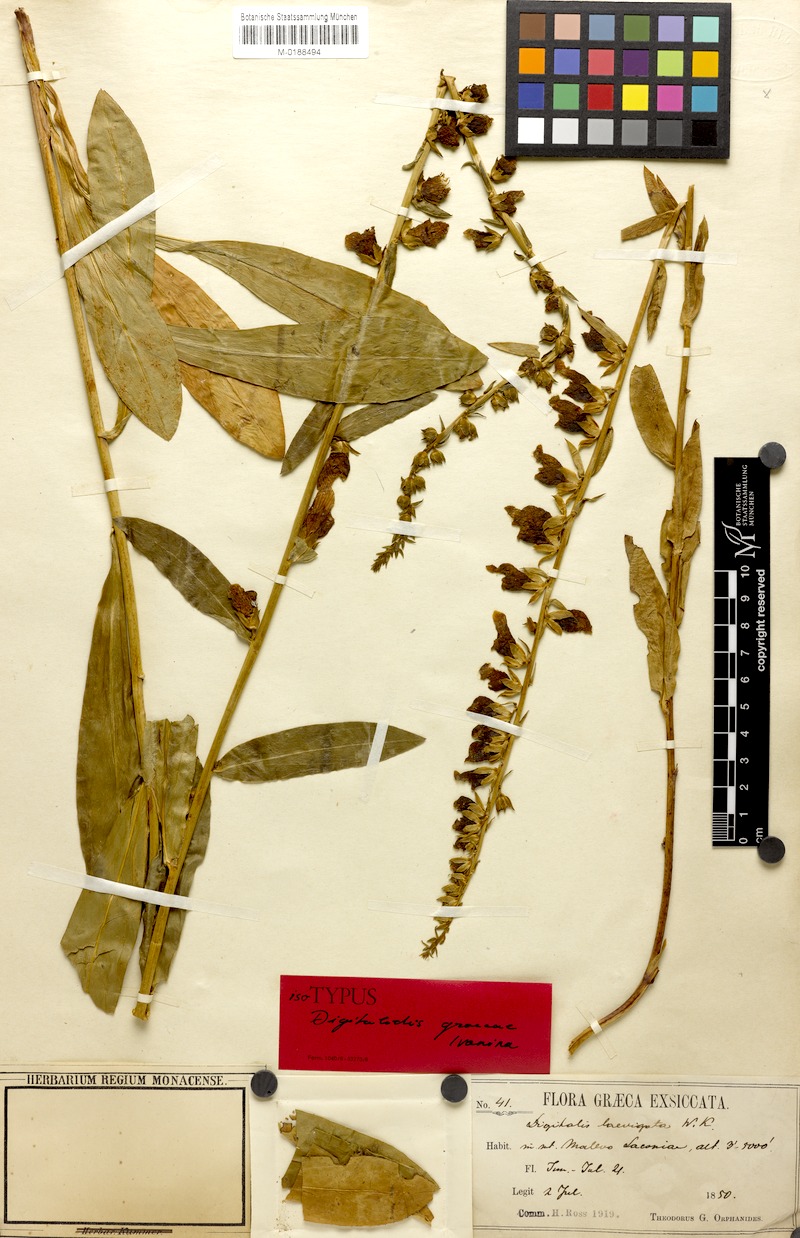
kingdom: Plantae
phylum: Tracheophyta
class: Magnoliopsida
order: Lamiales
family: Plantaginaceae
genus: Digitalis
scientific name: Digitalis laevigata
